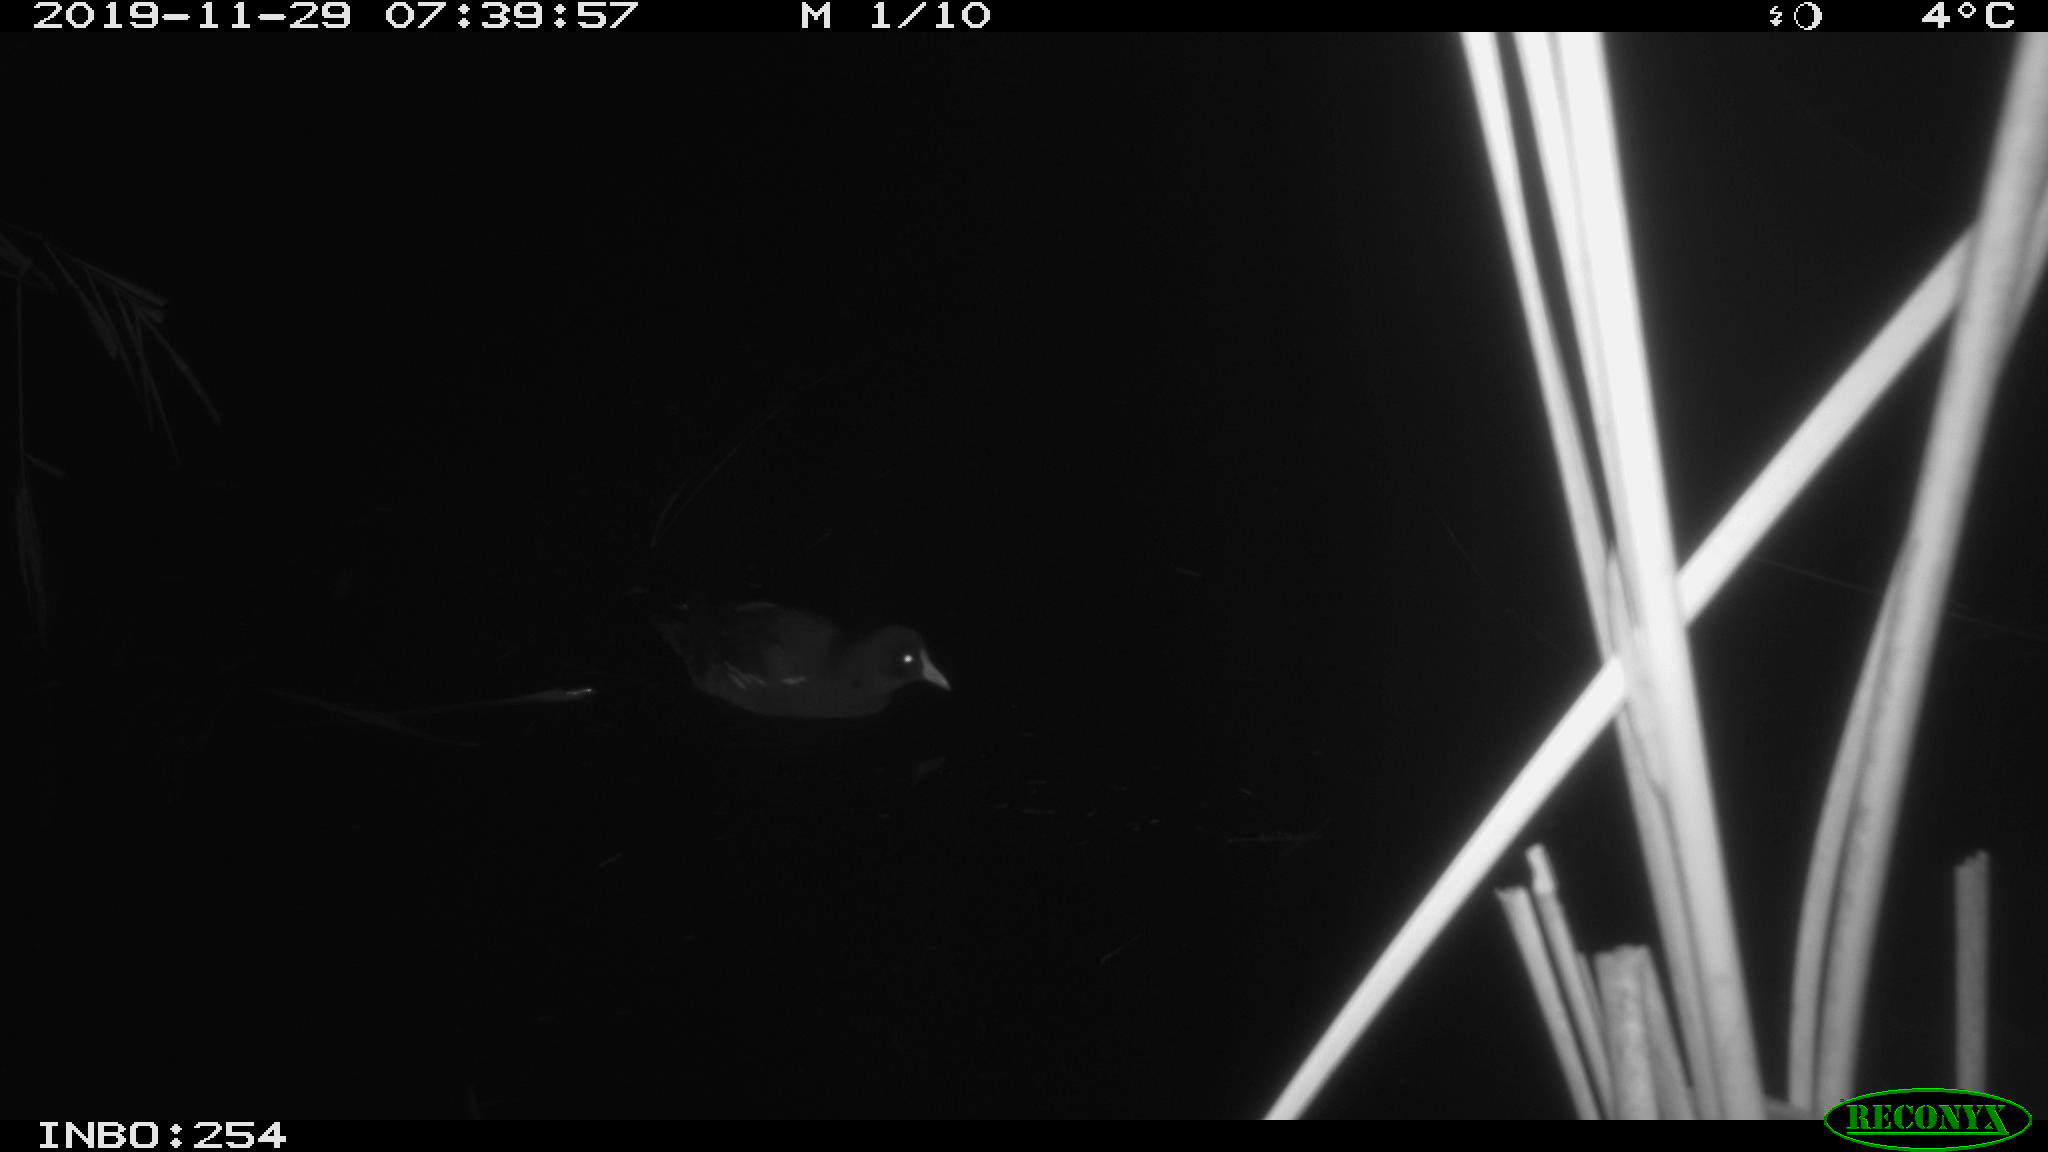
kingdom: Animalia
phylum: Chordata
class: Aves
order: Gruiformes
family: Rallidae
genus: Fulica
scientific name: Fulica atra
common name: Eurasian coot
